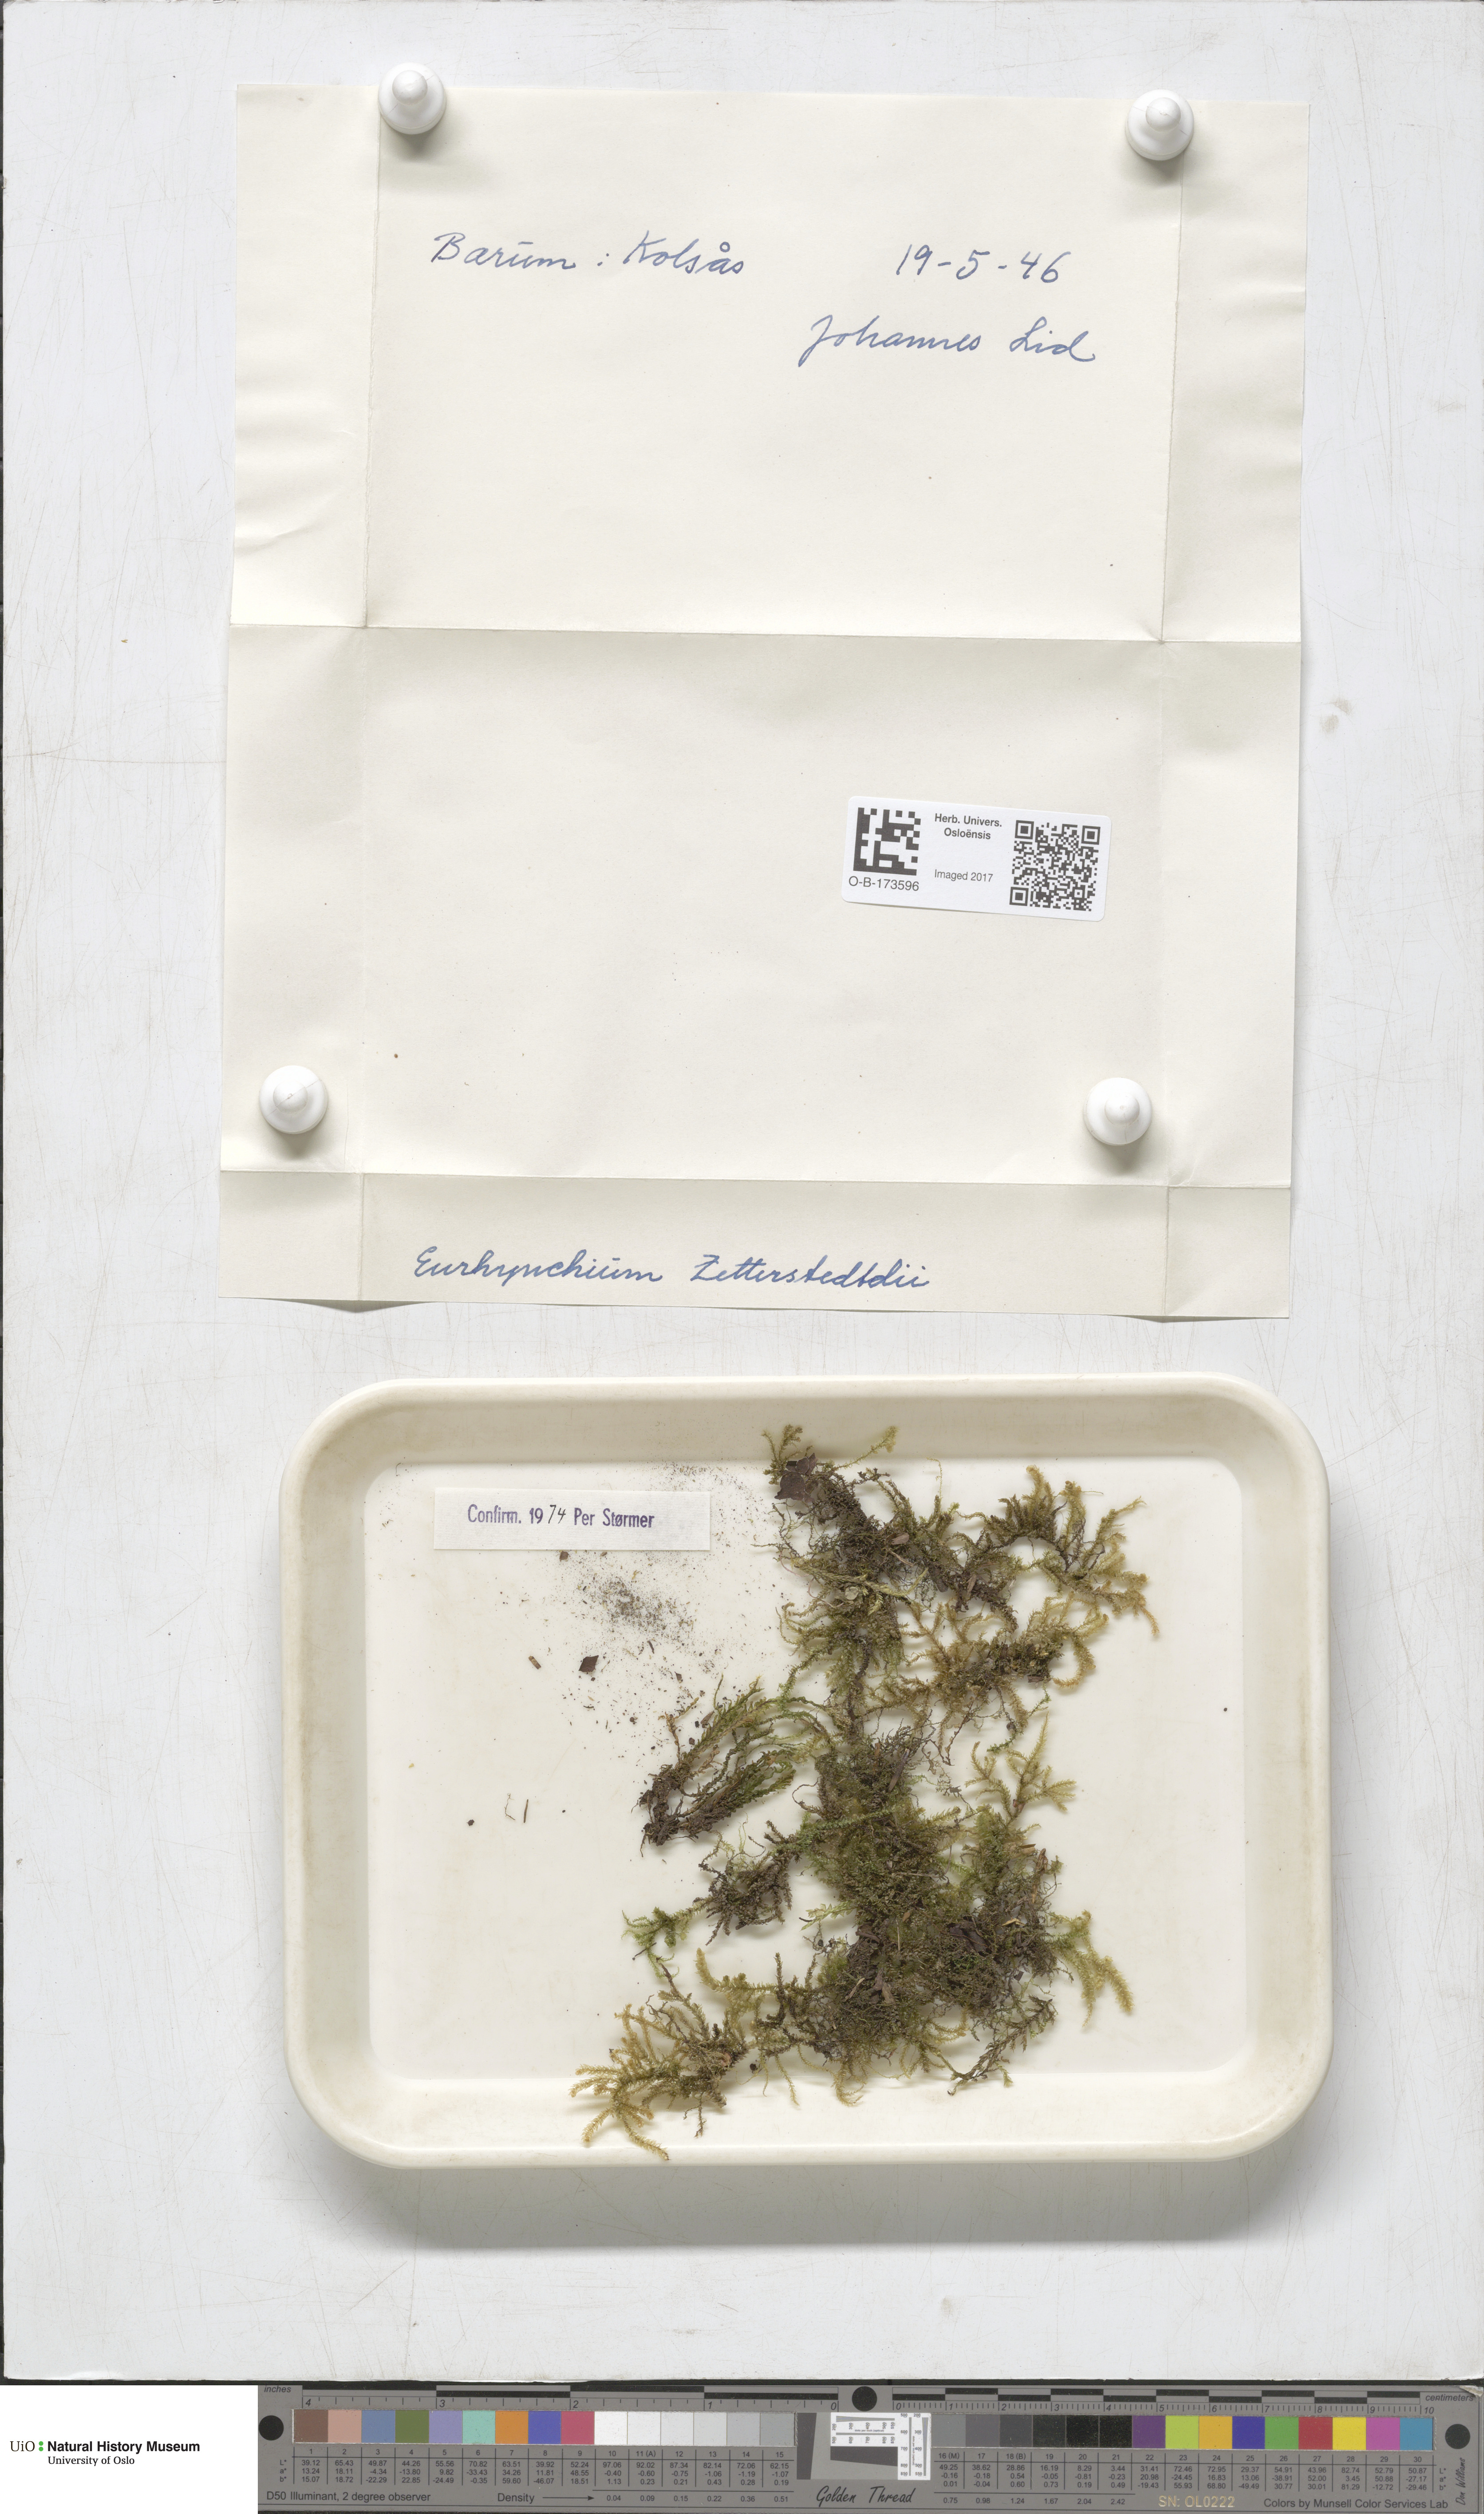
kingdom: Plantae
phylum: Bryophyta
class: Bryopsida
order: Hypnales
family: Brachytheciaceae
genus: Eurhynchium
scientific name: Eurhynchium angustirete
